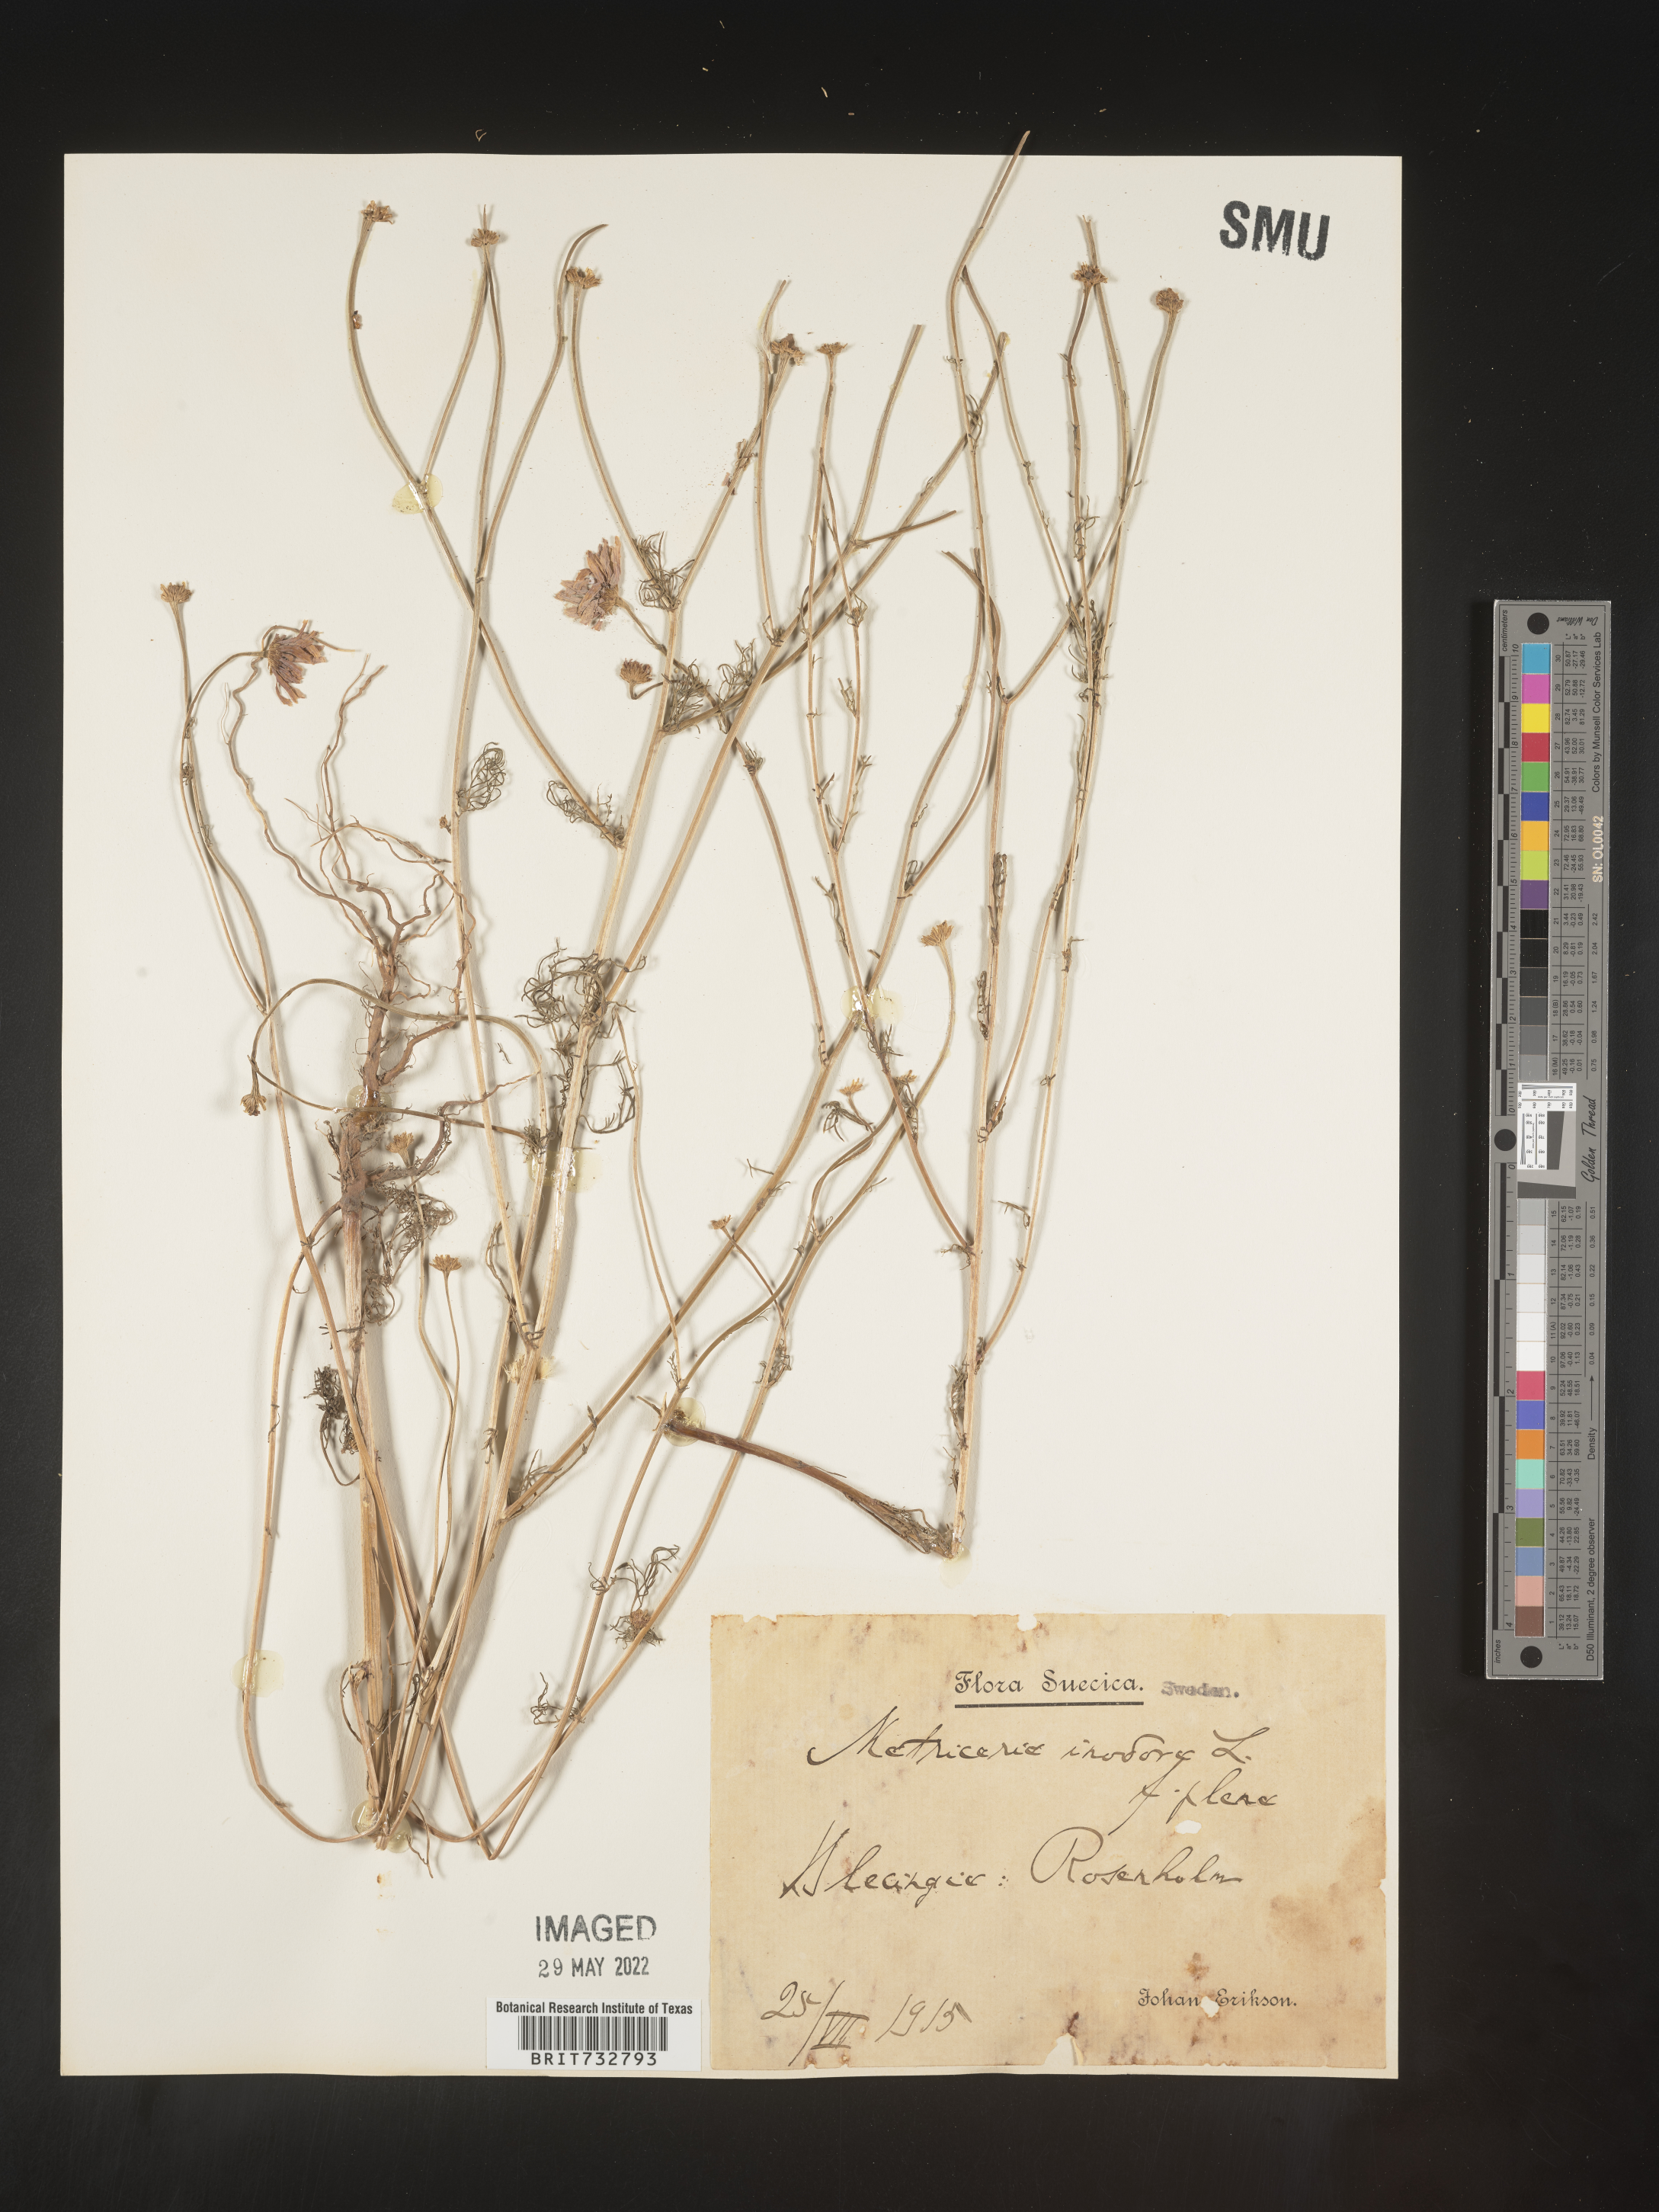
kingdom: Plantae
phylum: Tracheophyta
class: Magnoliopsida
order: Asterales
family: Asteraceae
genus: Matricaria
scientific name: Matricaria
